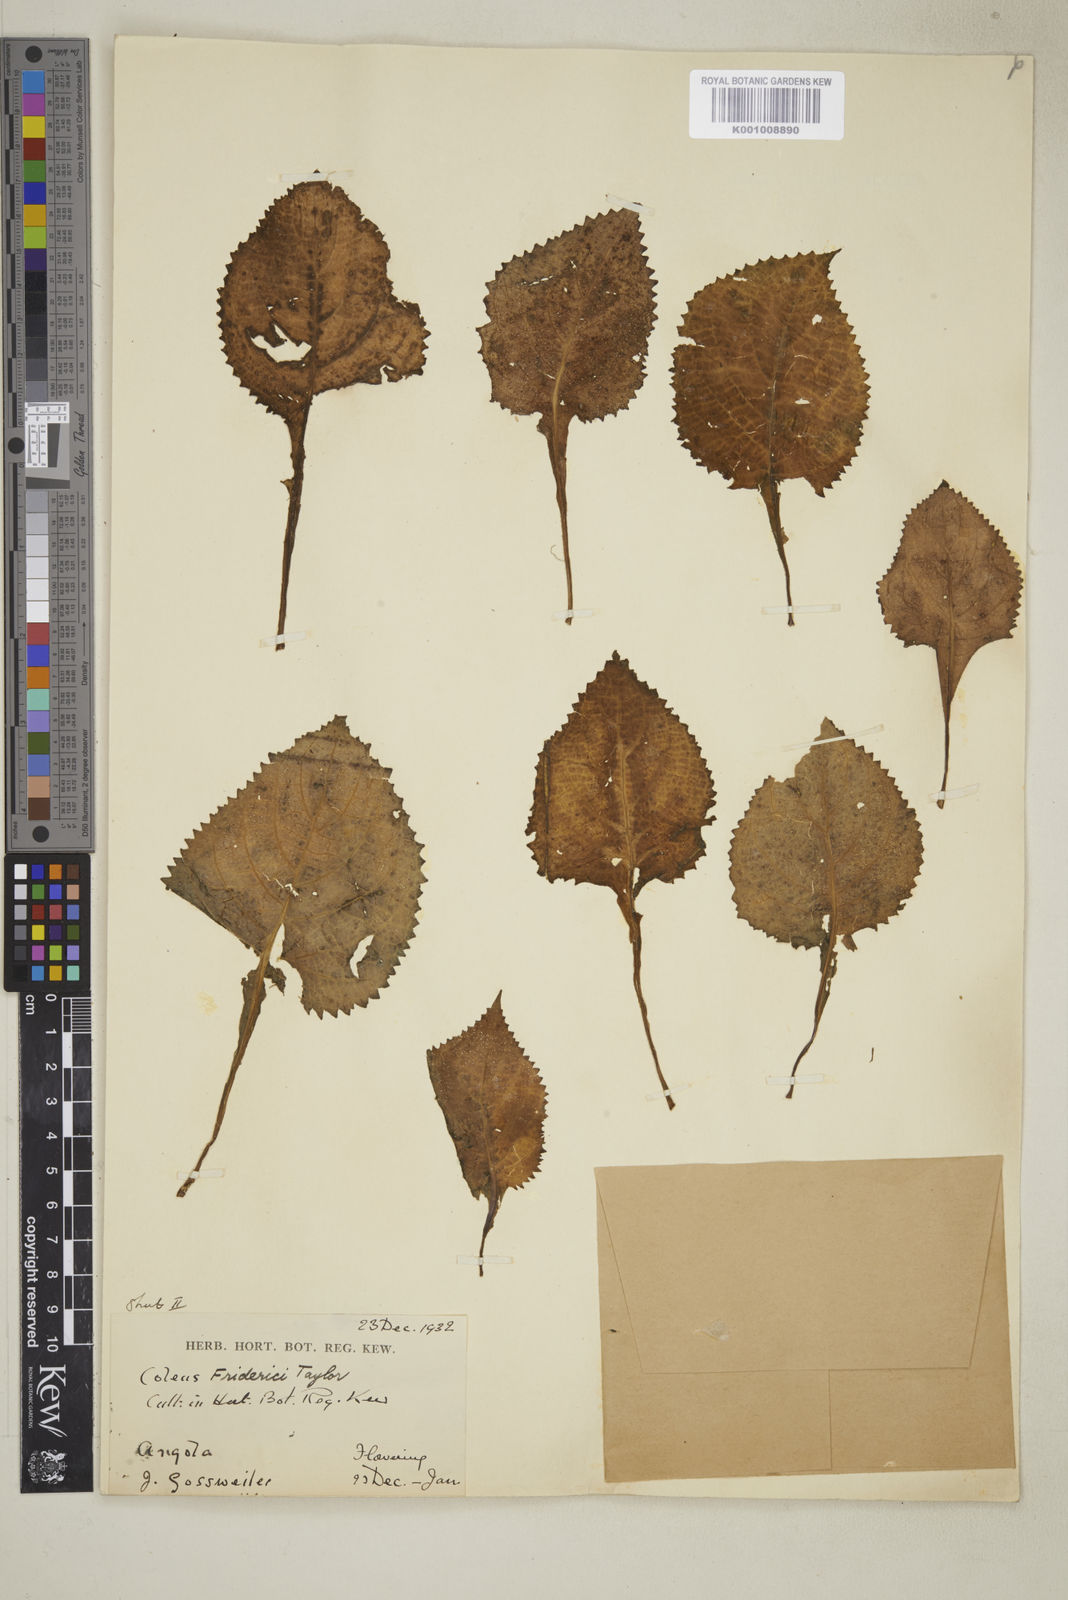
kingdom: Plantae
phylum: Tracheophyta
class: Magnoliopsida
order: Lamiales
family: Lamiaceae
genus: Plectranthus
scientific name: Plectranthus
